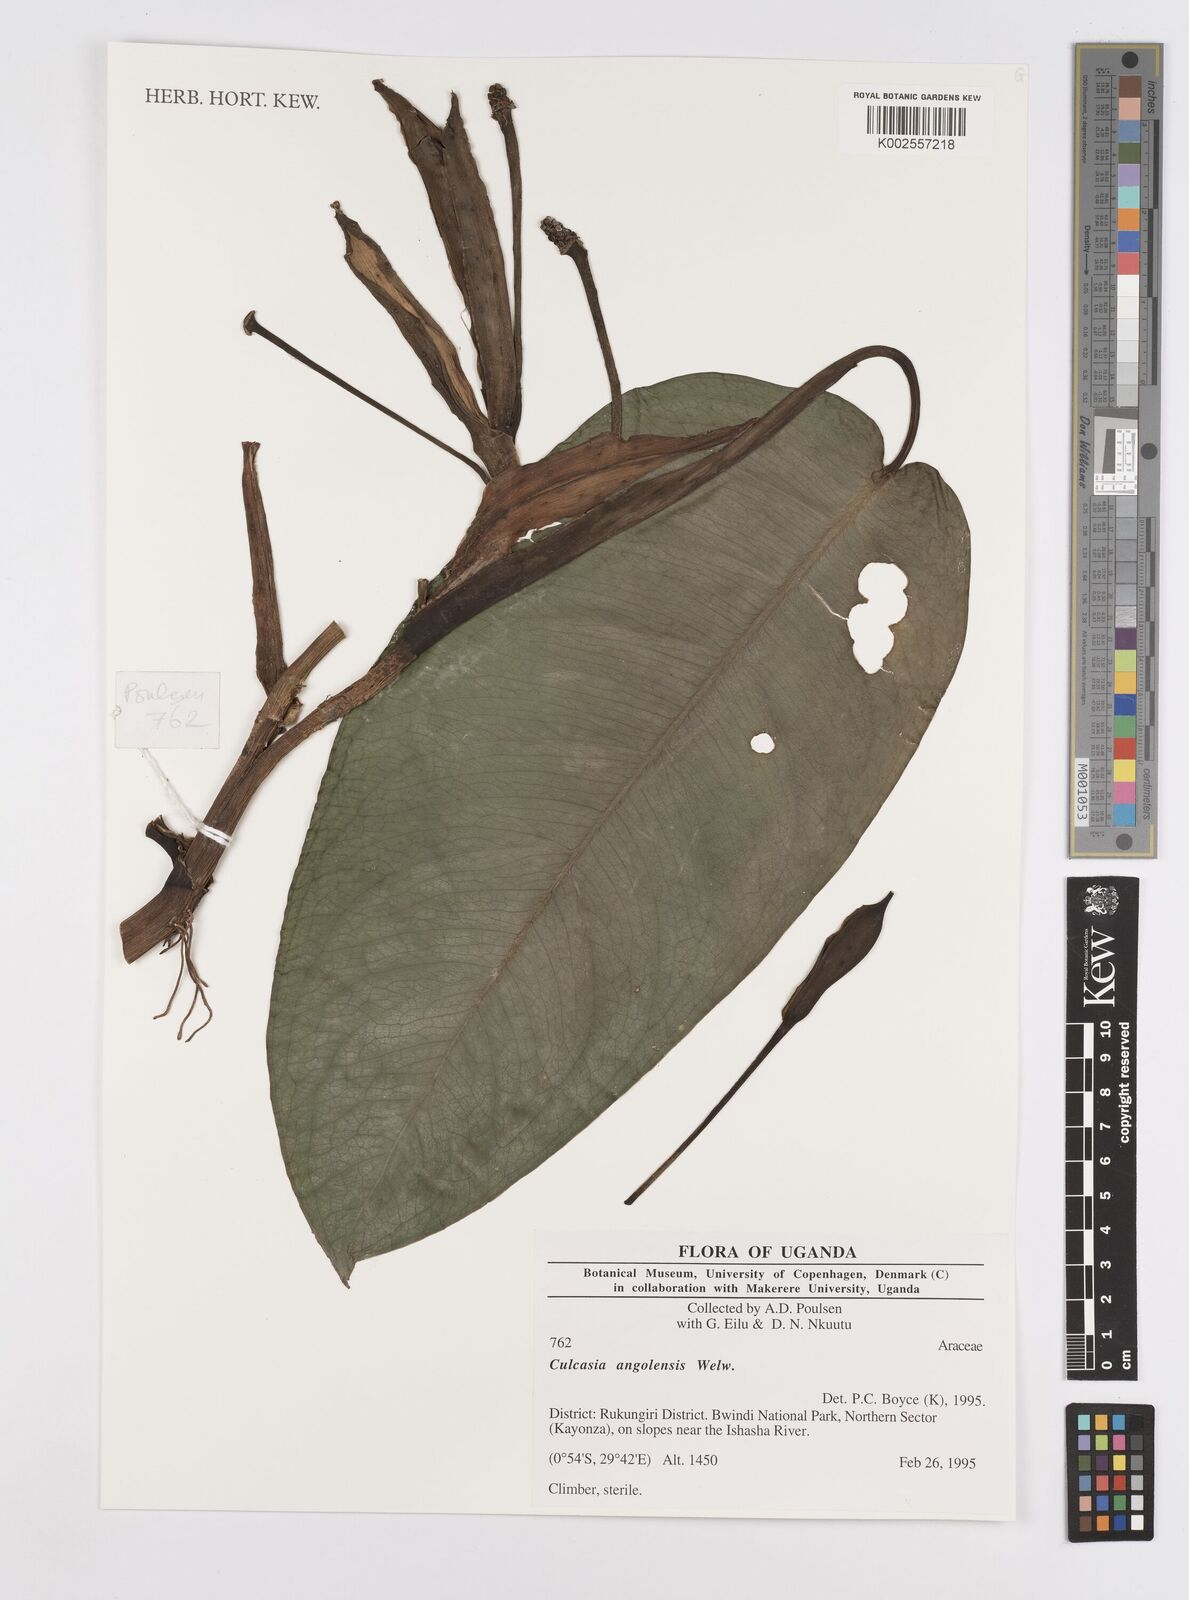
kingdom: Plantae
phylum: Tracheophyta
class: Liliopsida
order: Alismatales
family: Araceae
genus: Culcasia
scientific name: Culcasia angolensis
